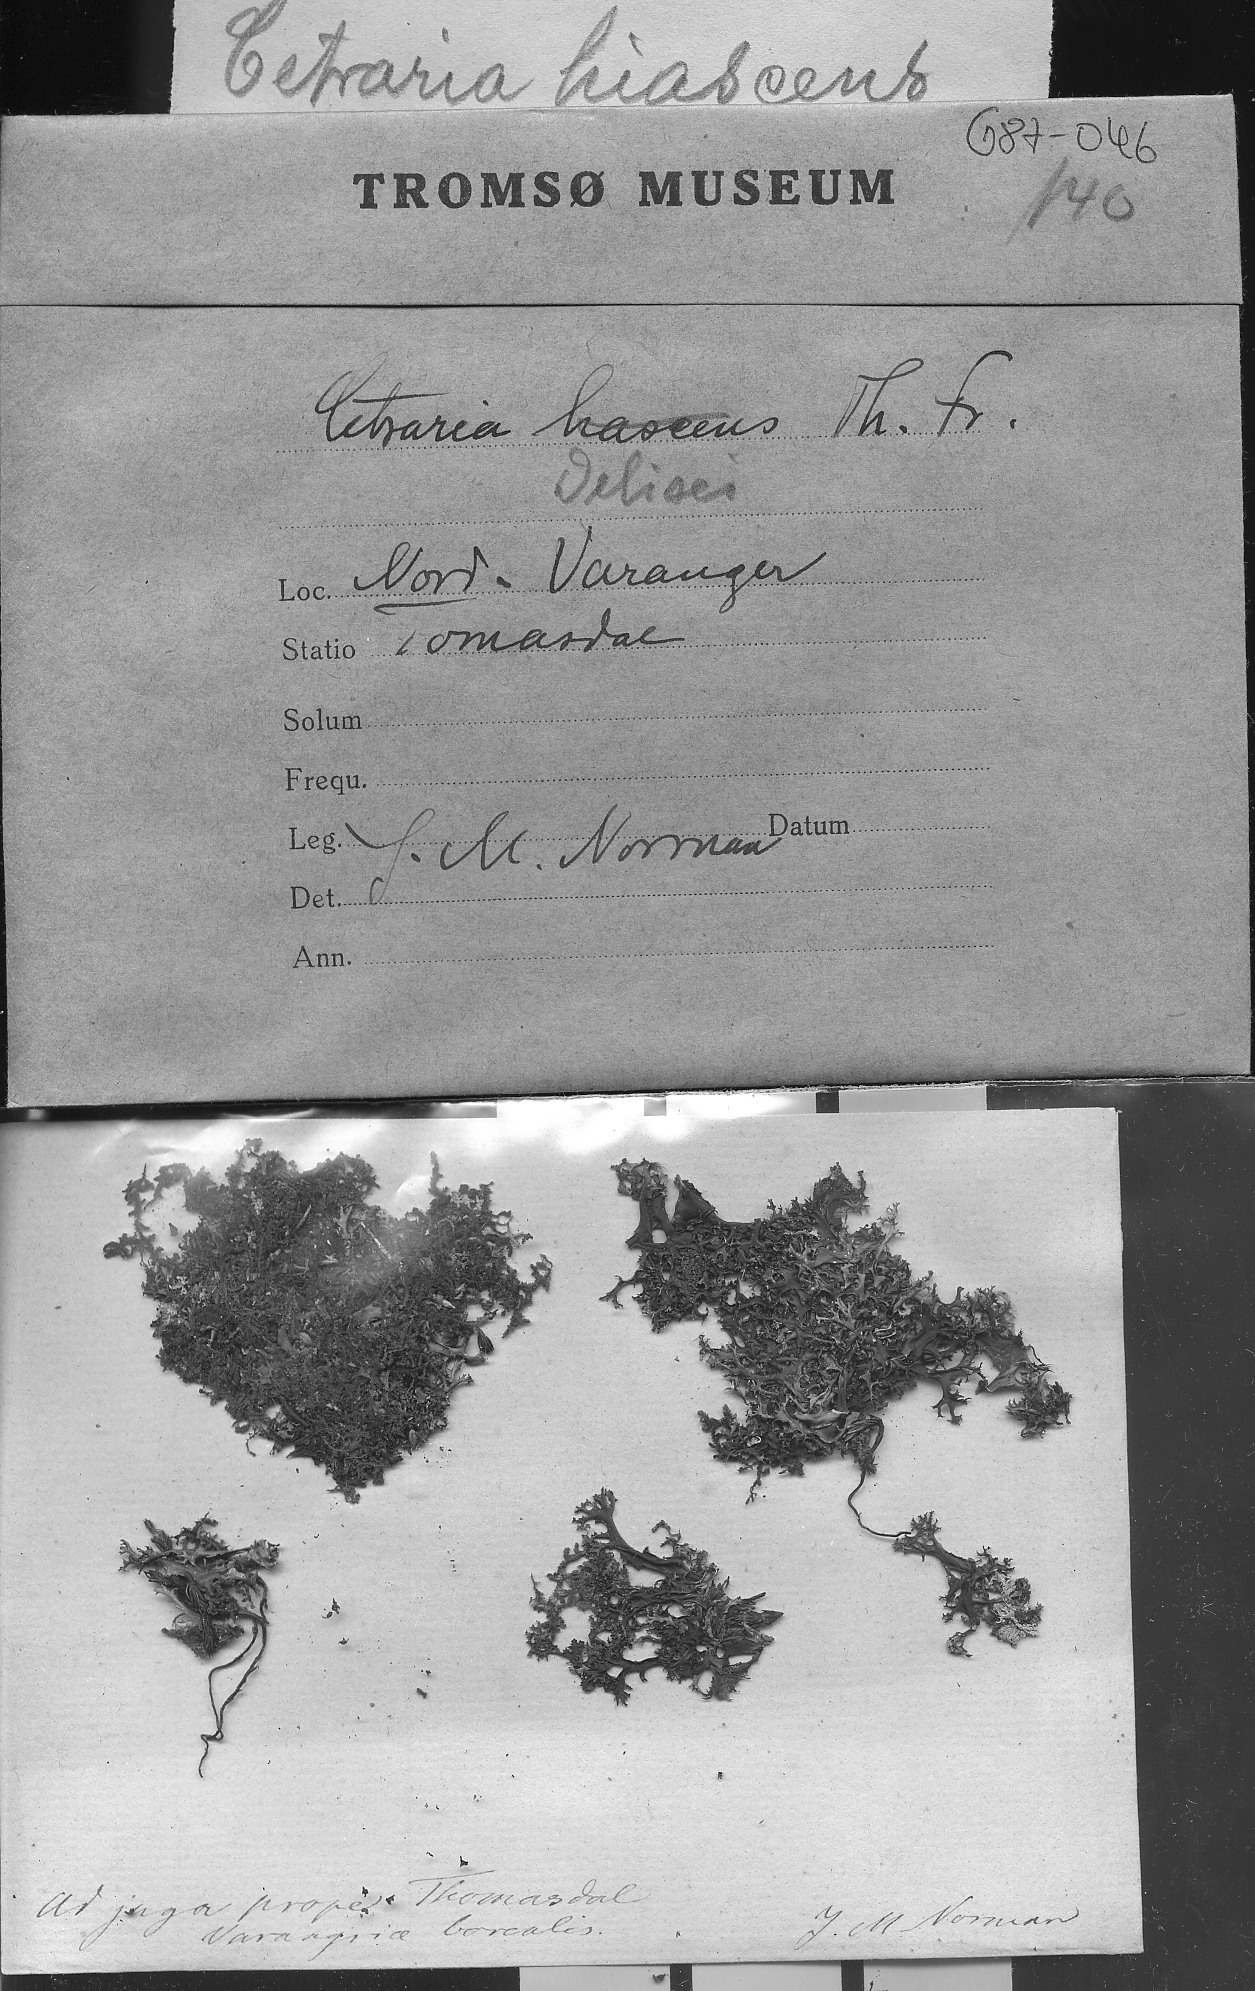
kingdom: Fungi
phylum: Ascomycota
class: Lecanoromycetes
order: Lecanorales
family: Parmeliaceae
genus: Cetrariella
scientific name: Cetrariella delisei
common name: Snow-bed iceland lichen
